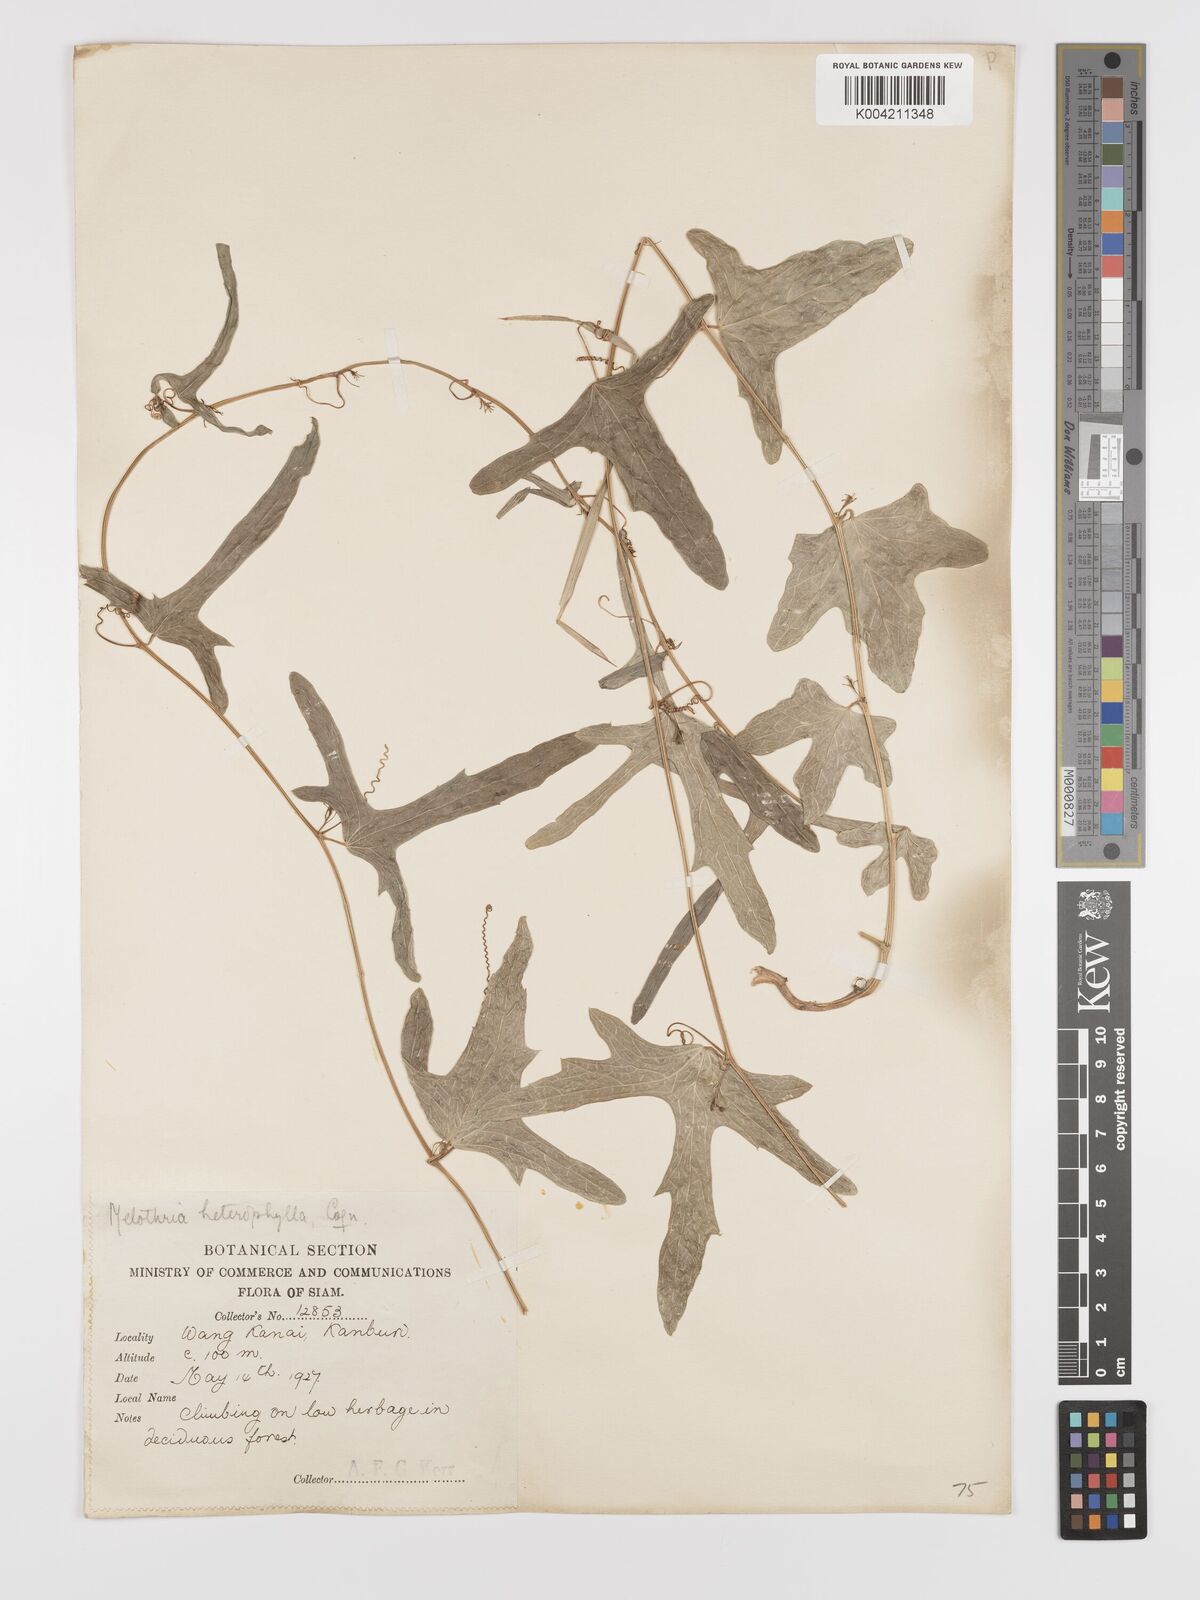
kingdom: Plantae
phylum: Tracheophyta
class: Magnoliopsida
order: Cucurbitales
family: Cucurbitaceae
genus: Solena
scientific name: Solena amplexicaulis
